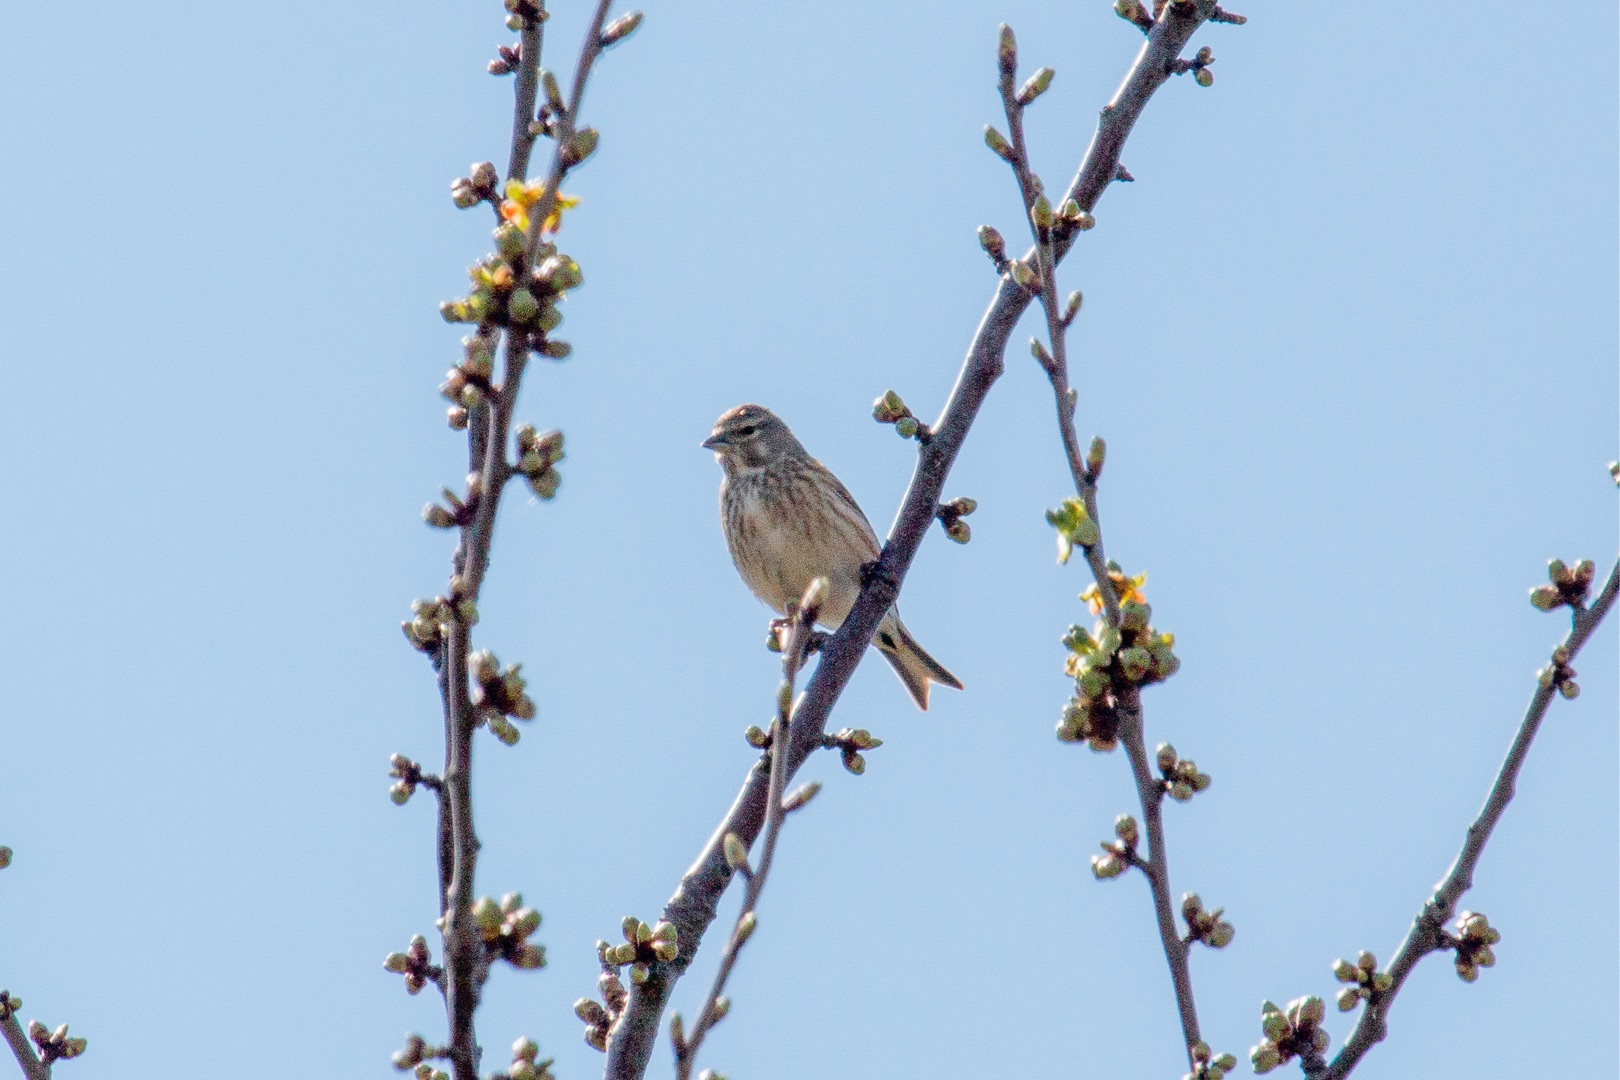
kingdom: Animalia
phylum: Chordata
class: Aves
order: Passeriformes
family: Fringillidae
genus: Linaria
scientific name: Linaria cannabina
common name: Tornirisk
